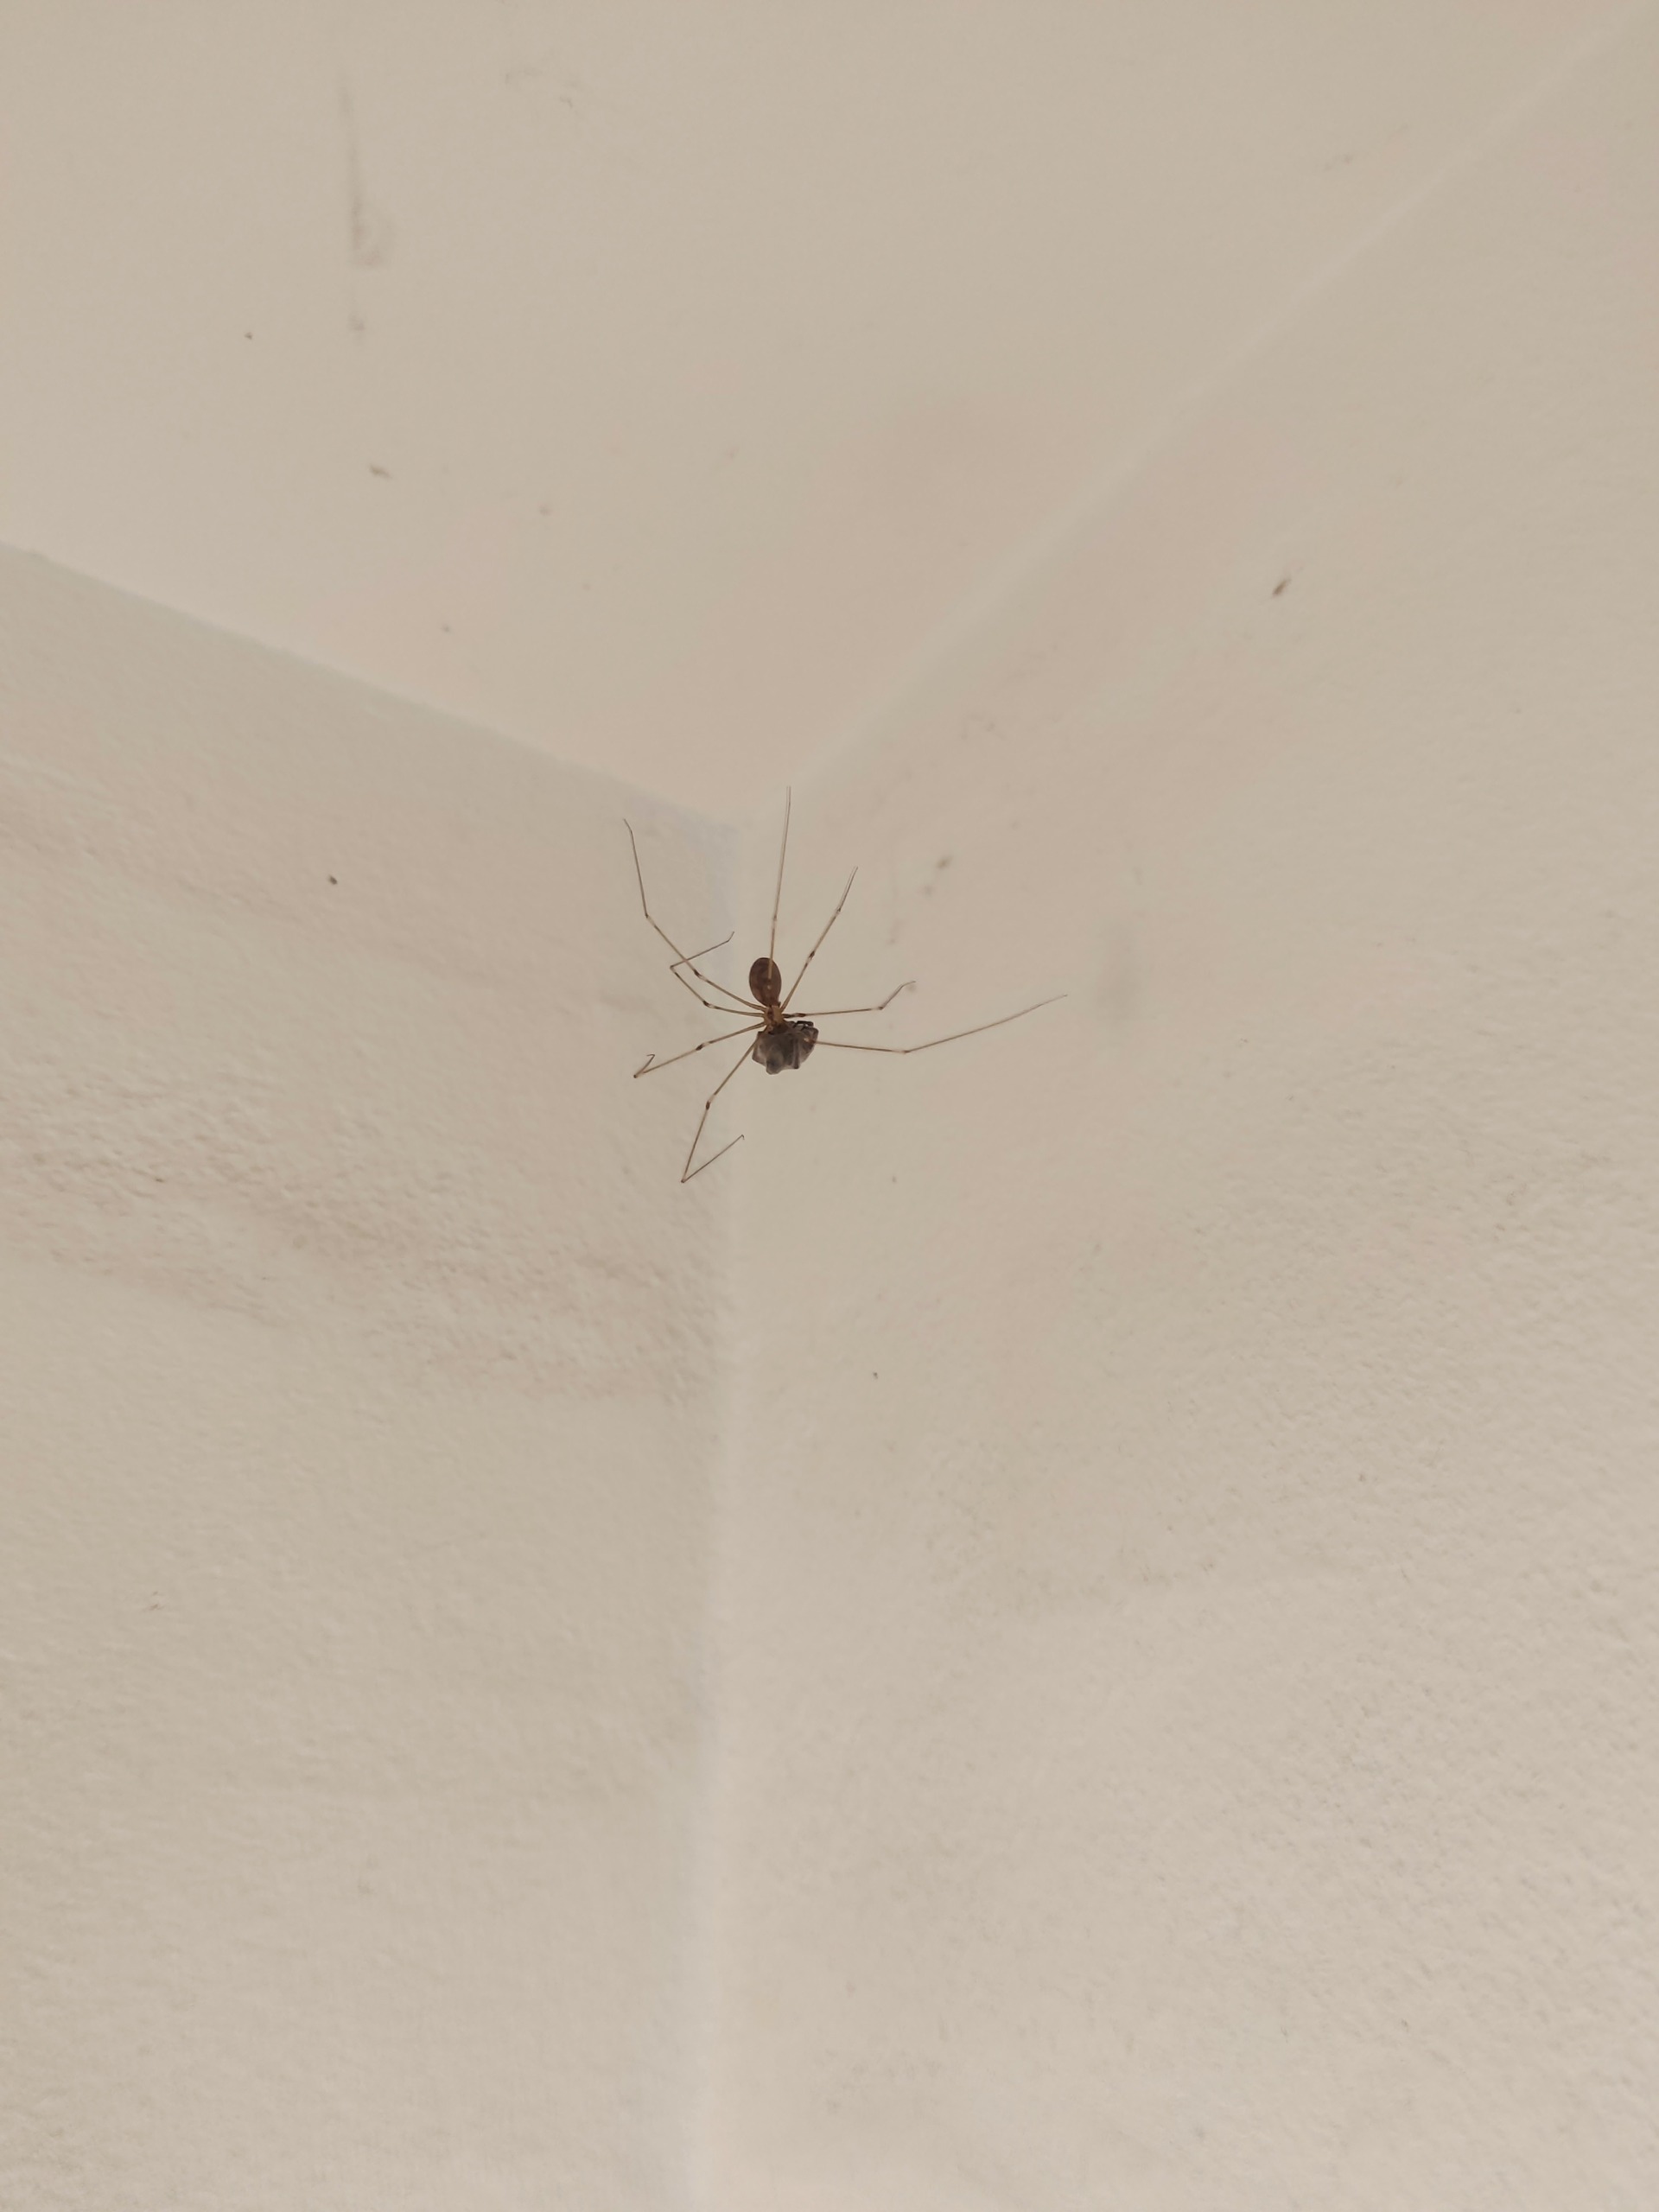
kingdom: Animalia
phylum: Arthropoda
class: Arachnida
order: Araneae
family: Pholcidae
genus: Pholcus
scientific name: Pholcus phalangioides
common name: Mejeredderkop
